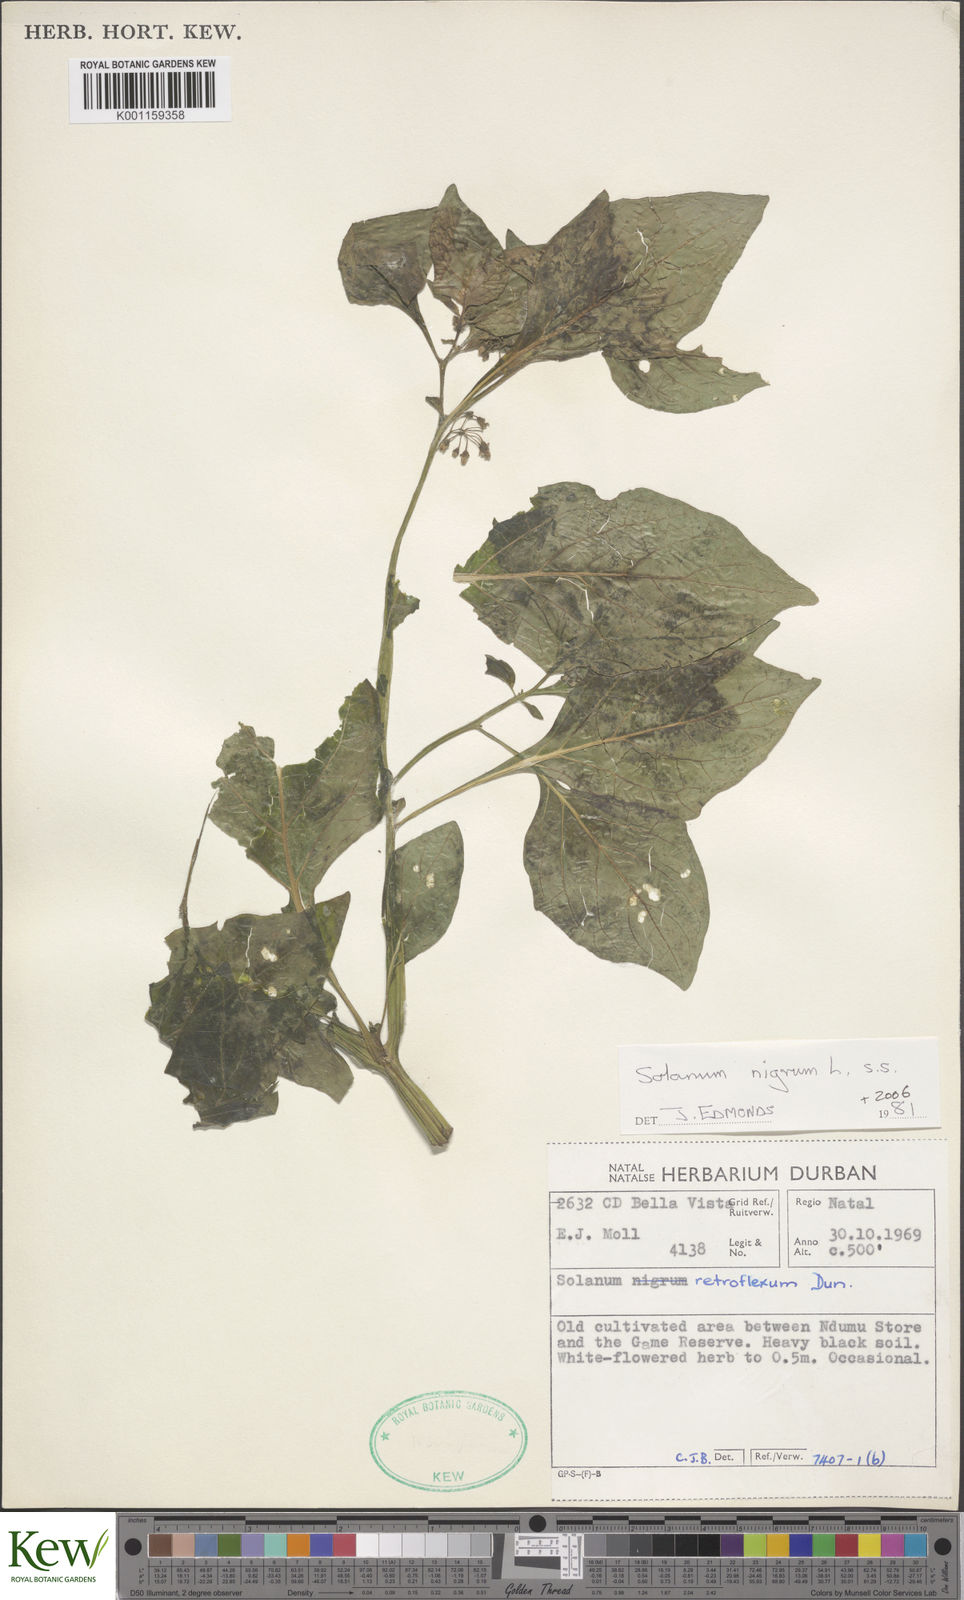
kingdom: Plantae
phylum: Tracheophyta
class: Magnoliopsida
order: Solanales
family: Solanaceae
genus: Solanum
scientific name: Solanum scabrum
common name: Garden-huckleberry
